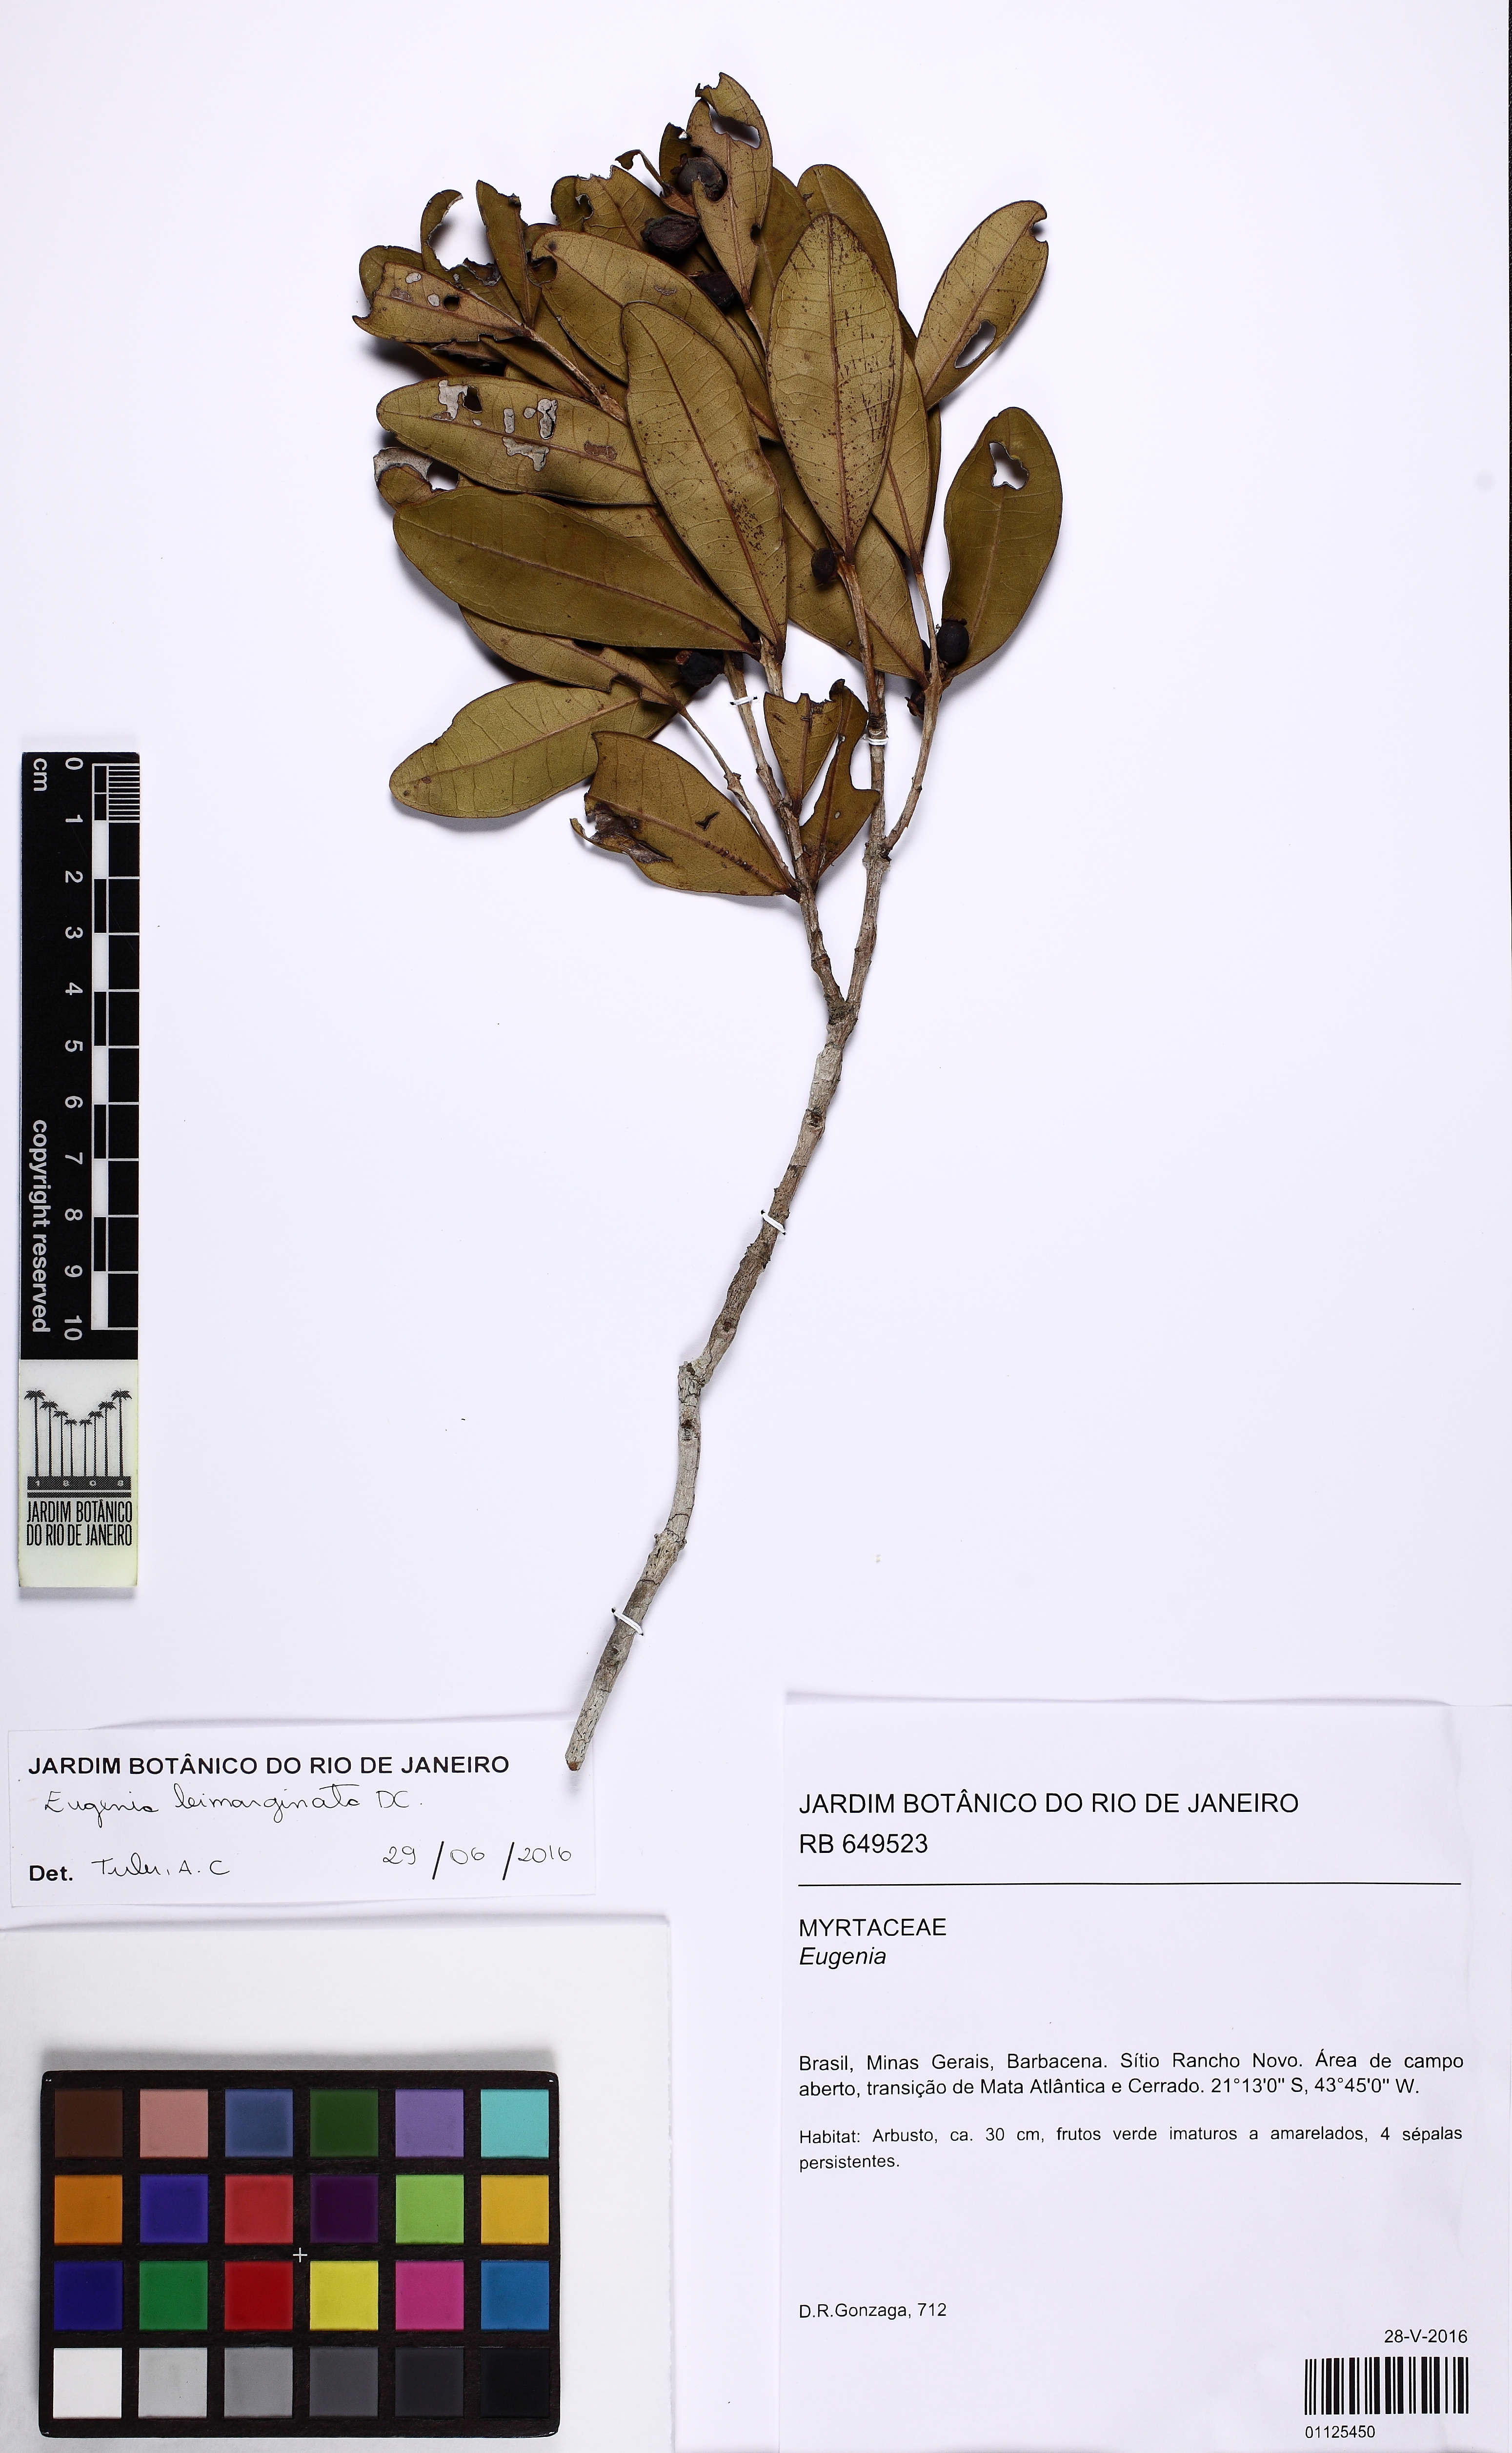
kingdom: Plantae
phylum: Tracheophyta
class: Magnoliopsida
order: Myrtales
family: Myrtaceae
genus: Eugenia
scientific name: Eugenia bimarginata
